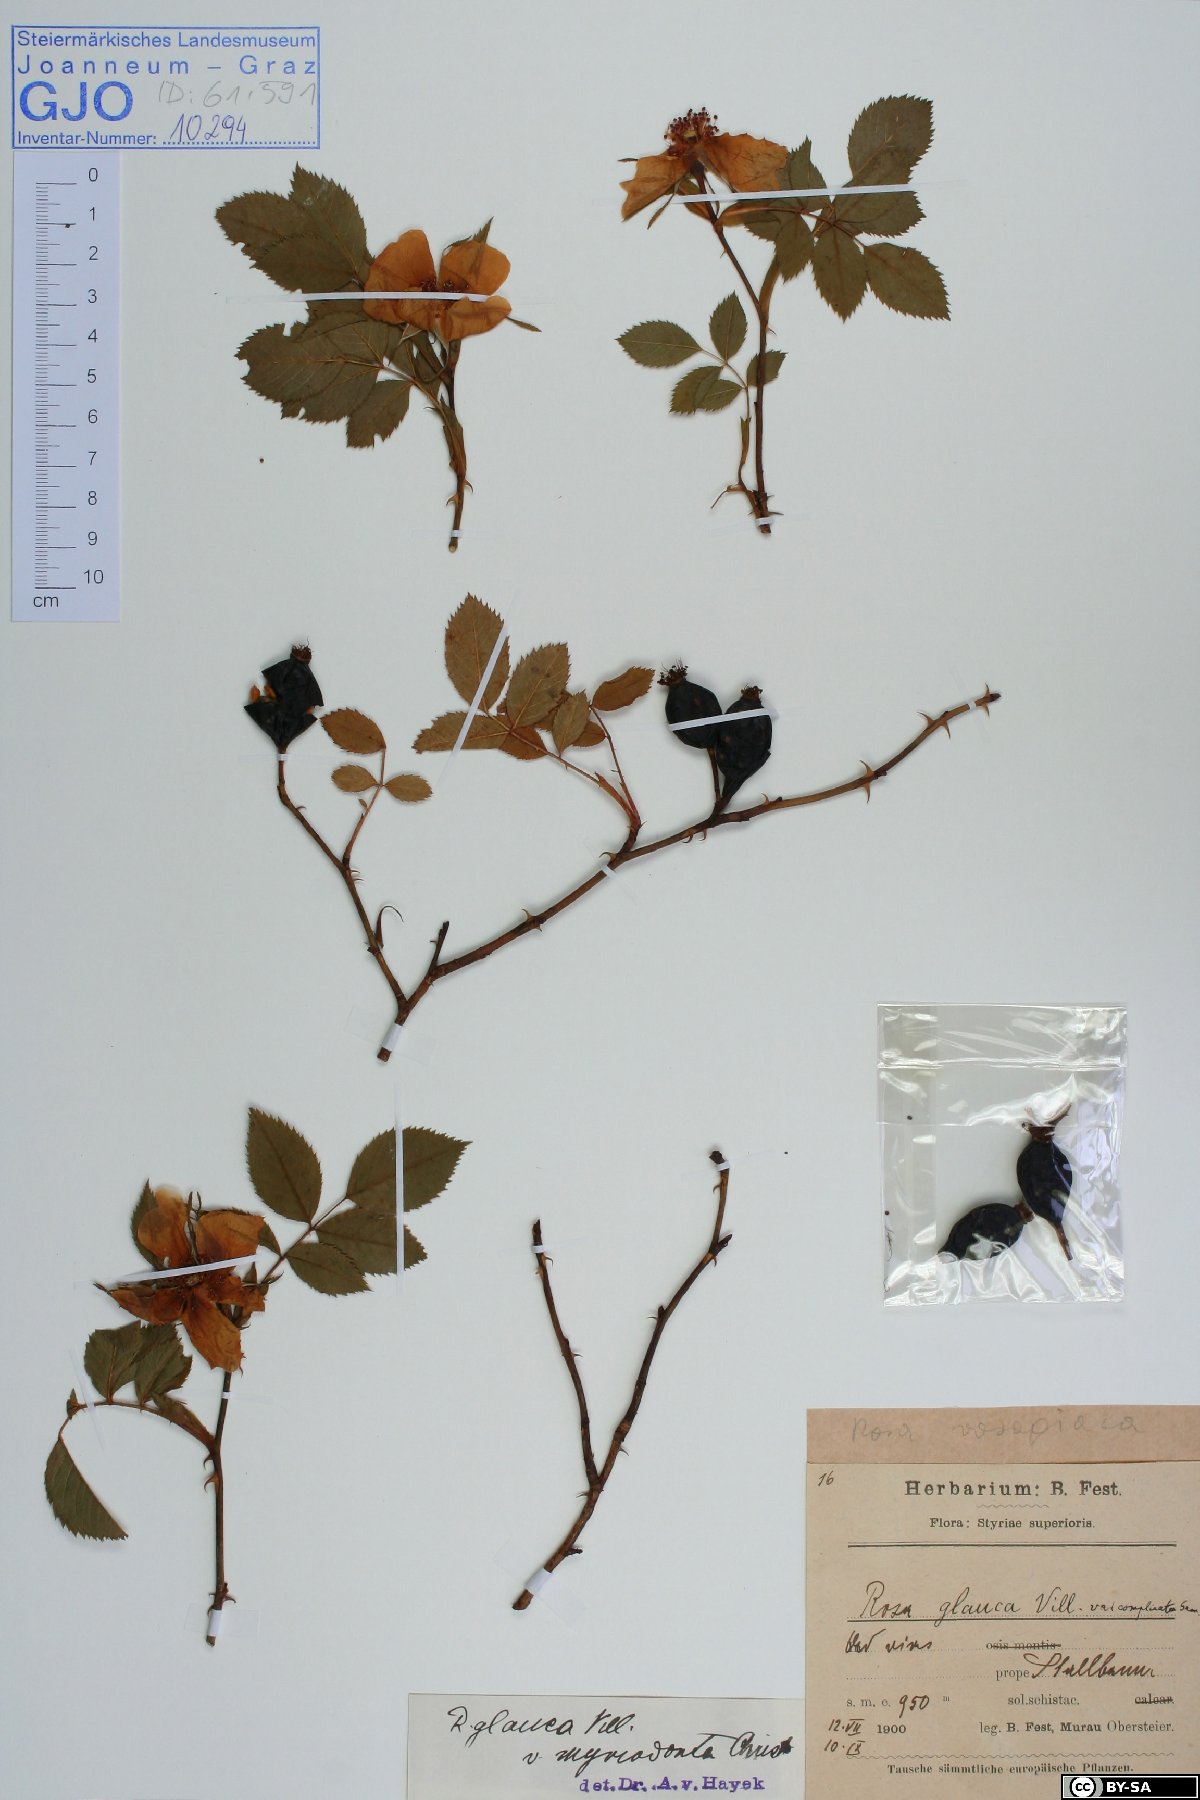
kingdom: Plantae
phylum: Tracheophyta
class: Magnoliopsida
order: Rosales
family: Rosaceae
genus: Rosa
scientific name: Rosa vosagiaca
